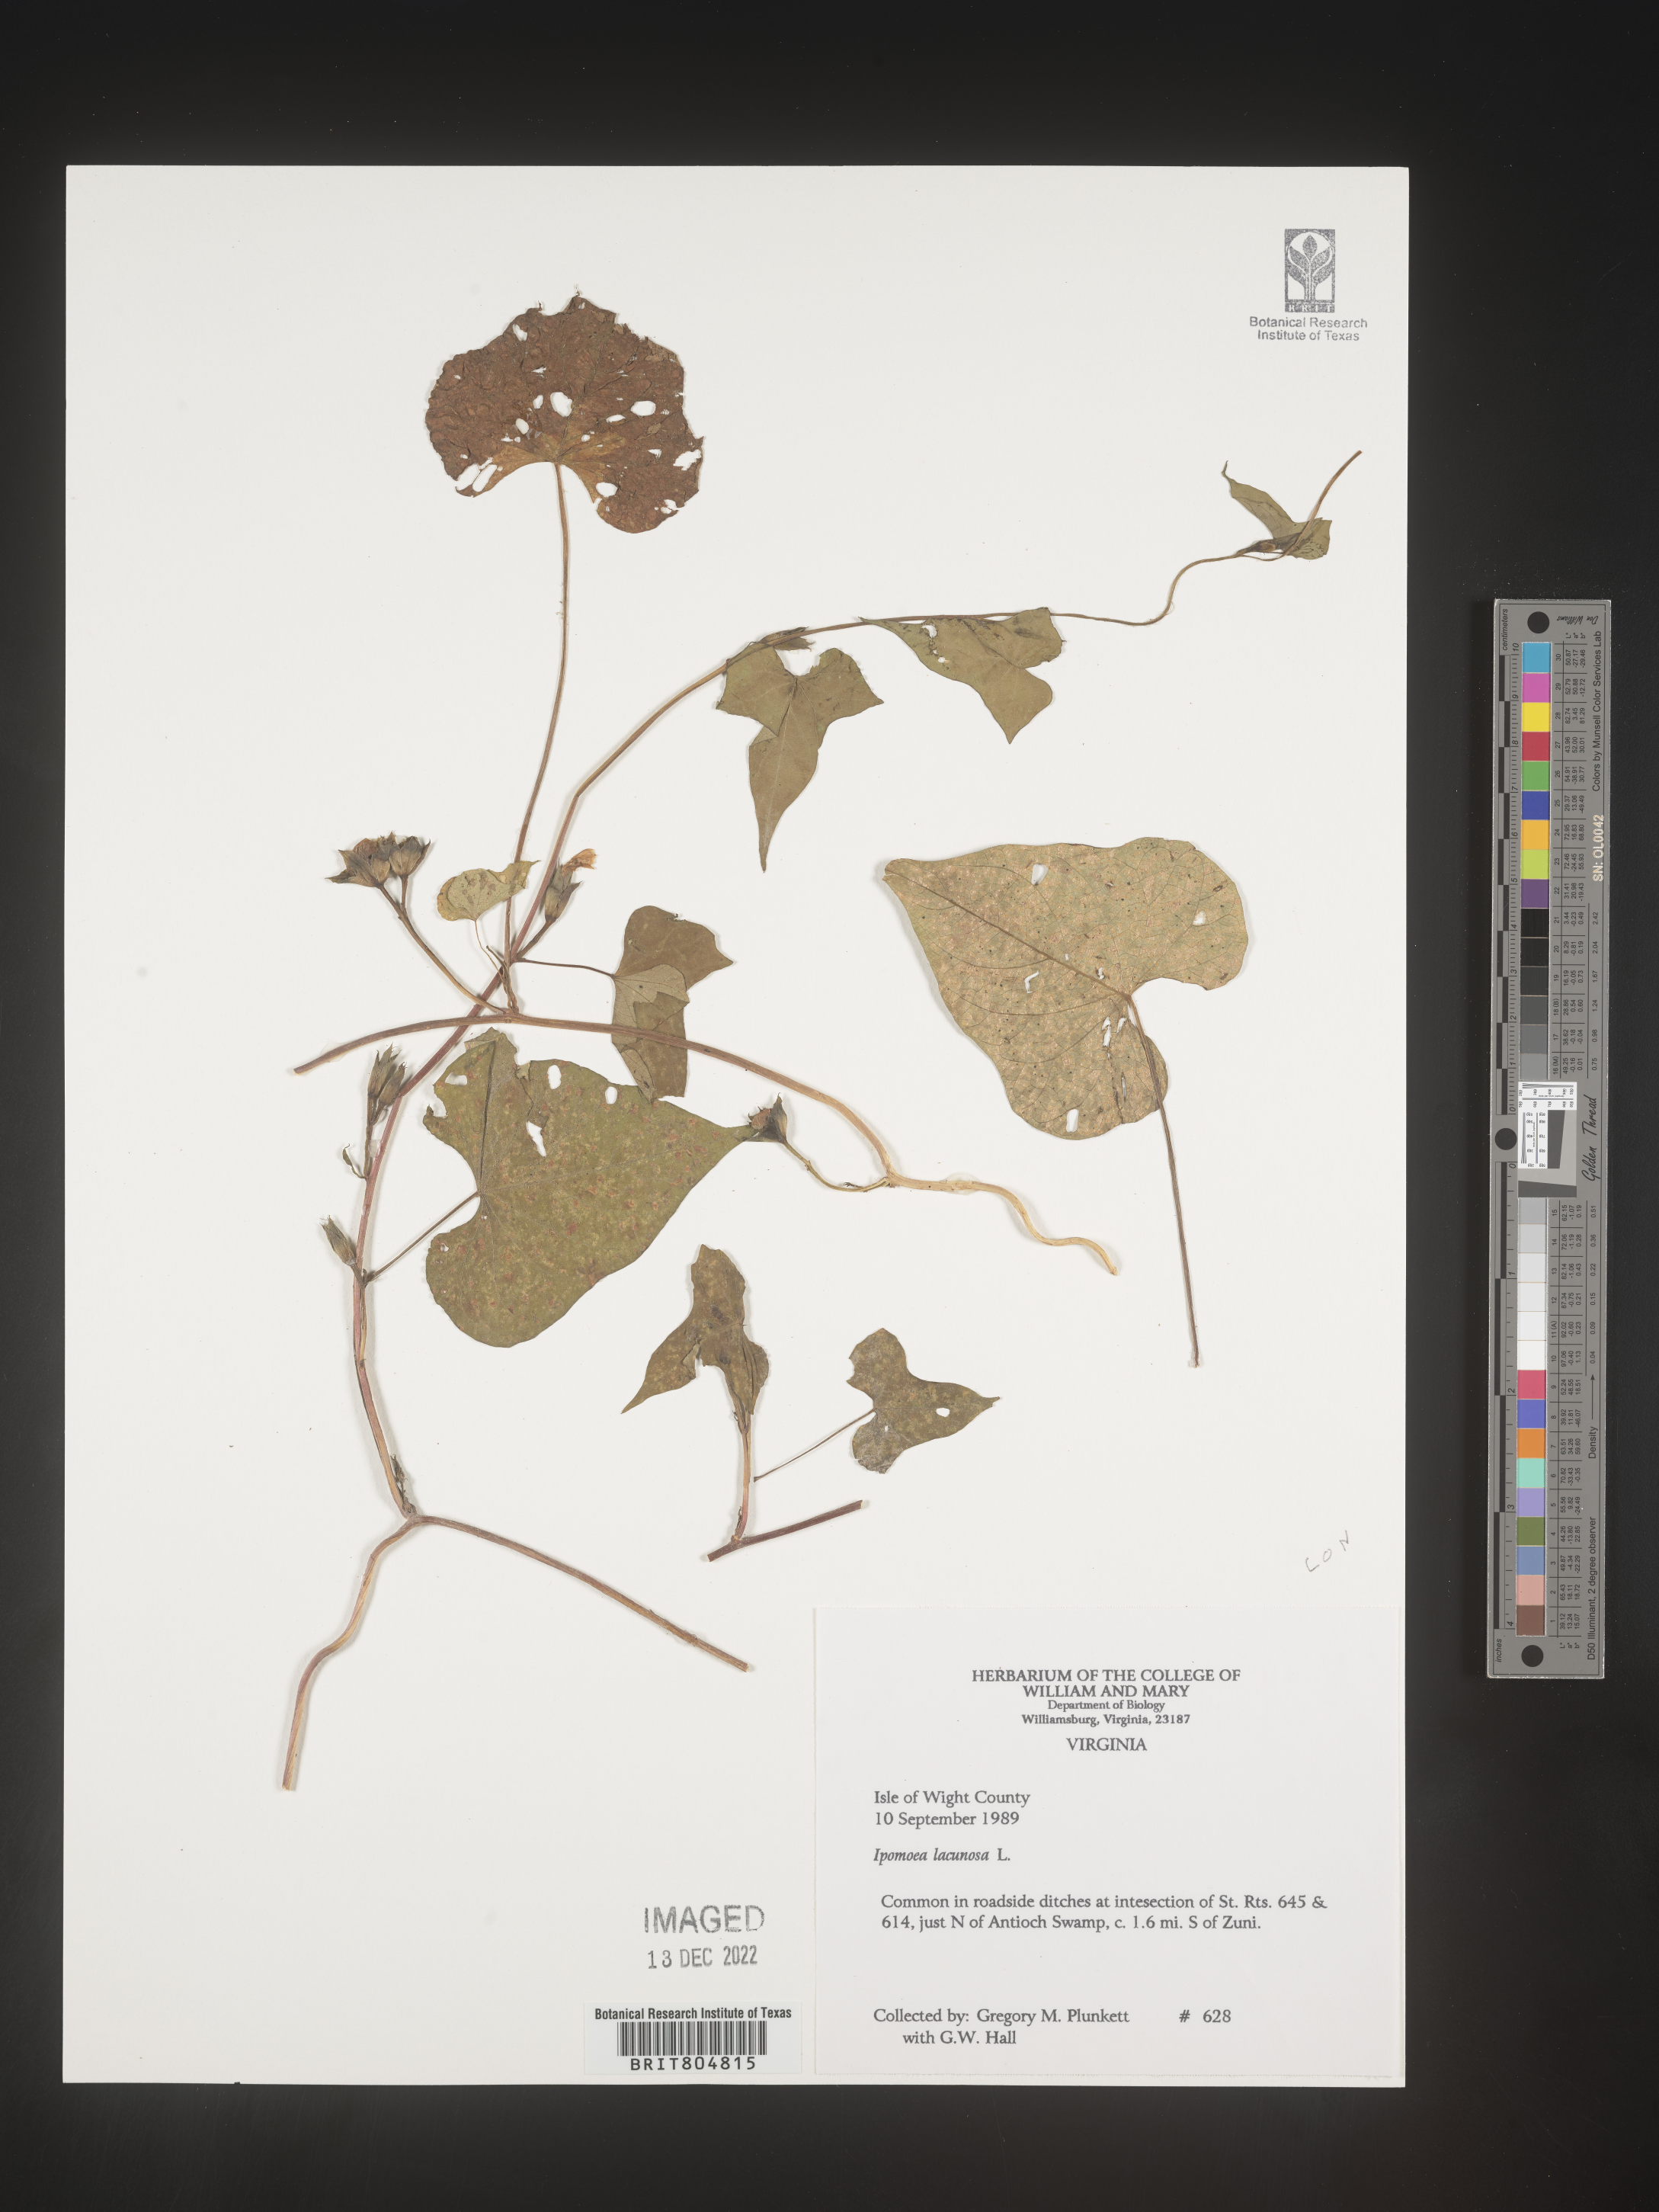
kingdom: Plantae
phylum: Tracheophyta
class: Magnoliopsida
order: Solanales
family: Convolvulaceae
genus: Ipomoea
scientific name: Ipomoea lacunosa
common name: White morning-glory
